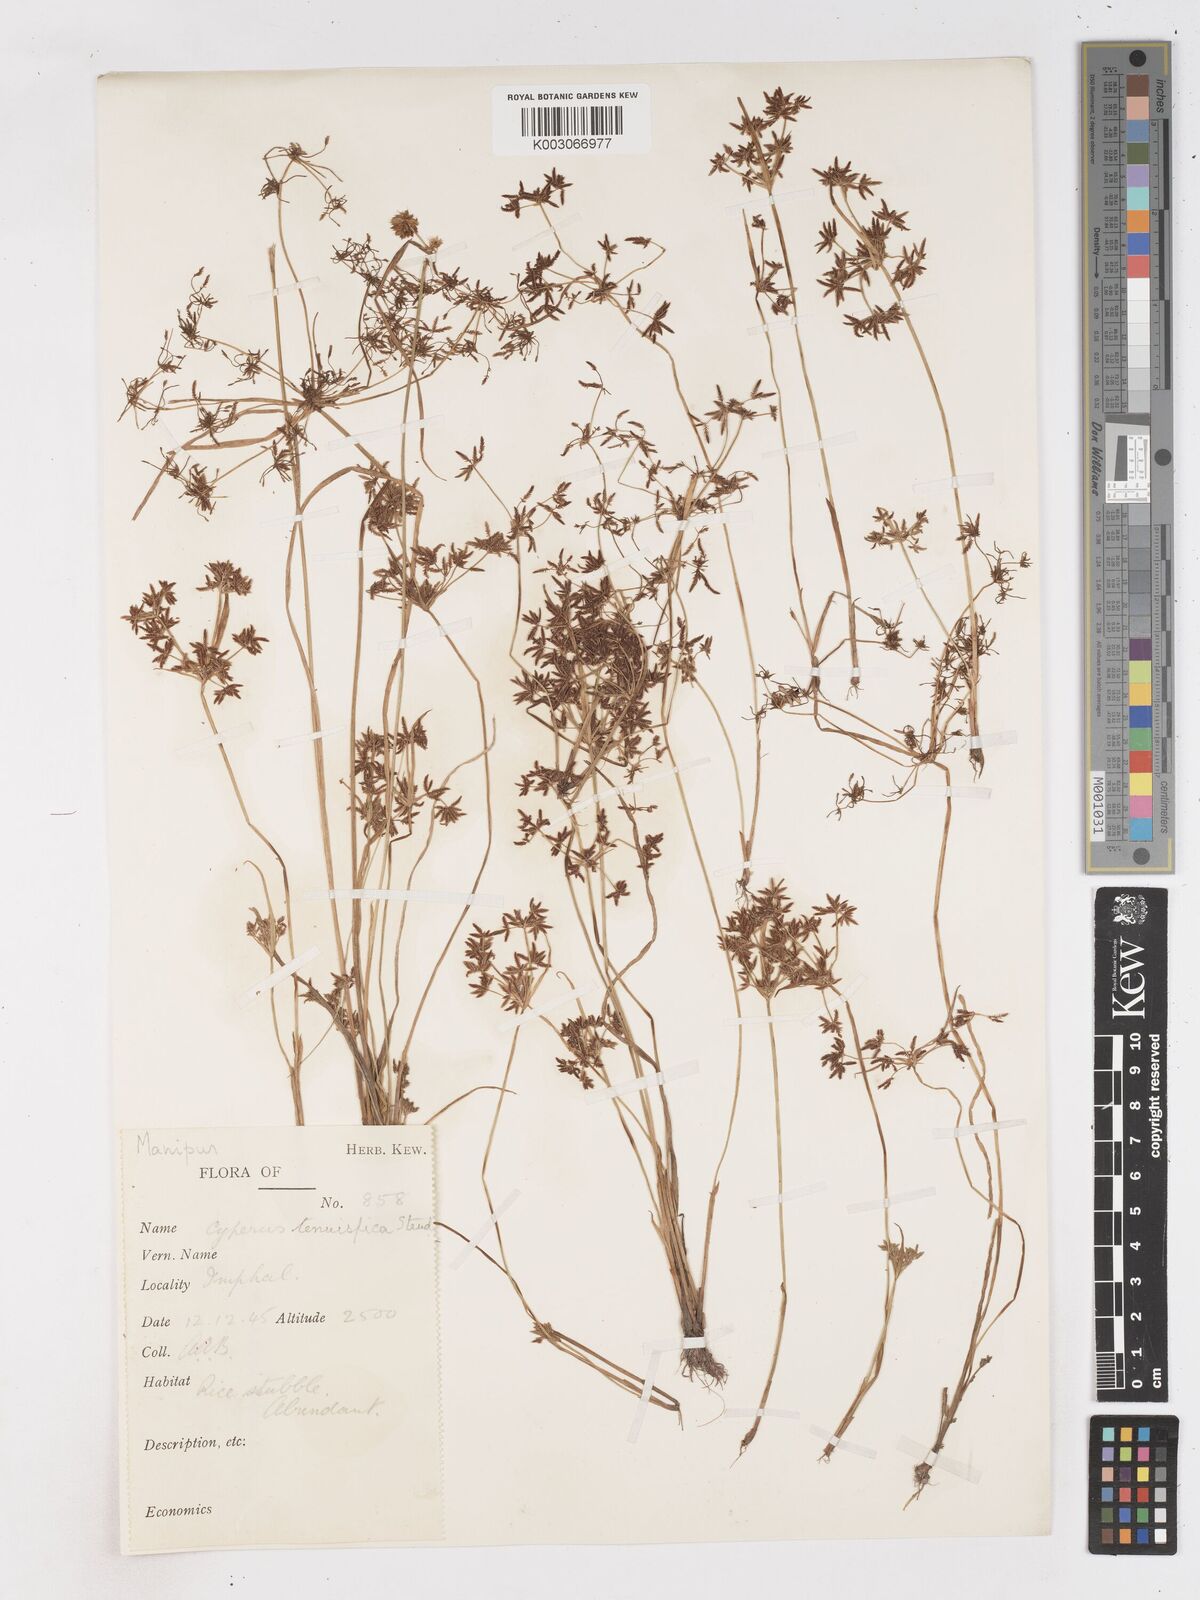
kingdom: Plantae
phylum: Tracheophyta
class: Liliopsida
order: Poales
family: Cyperaceae
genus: Cyperus
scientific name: Cyperus tenuispica
